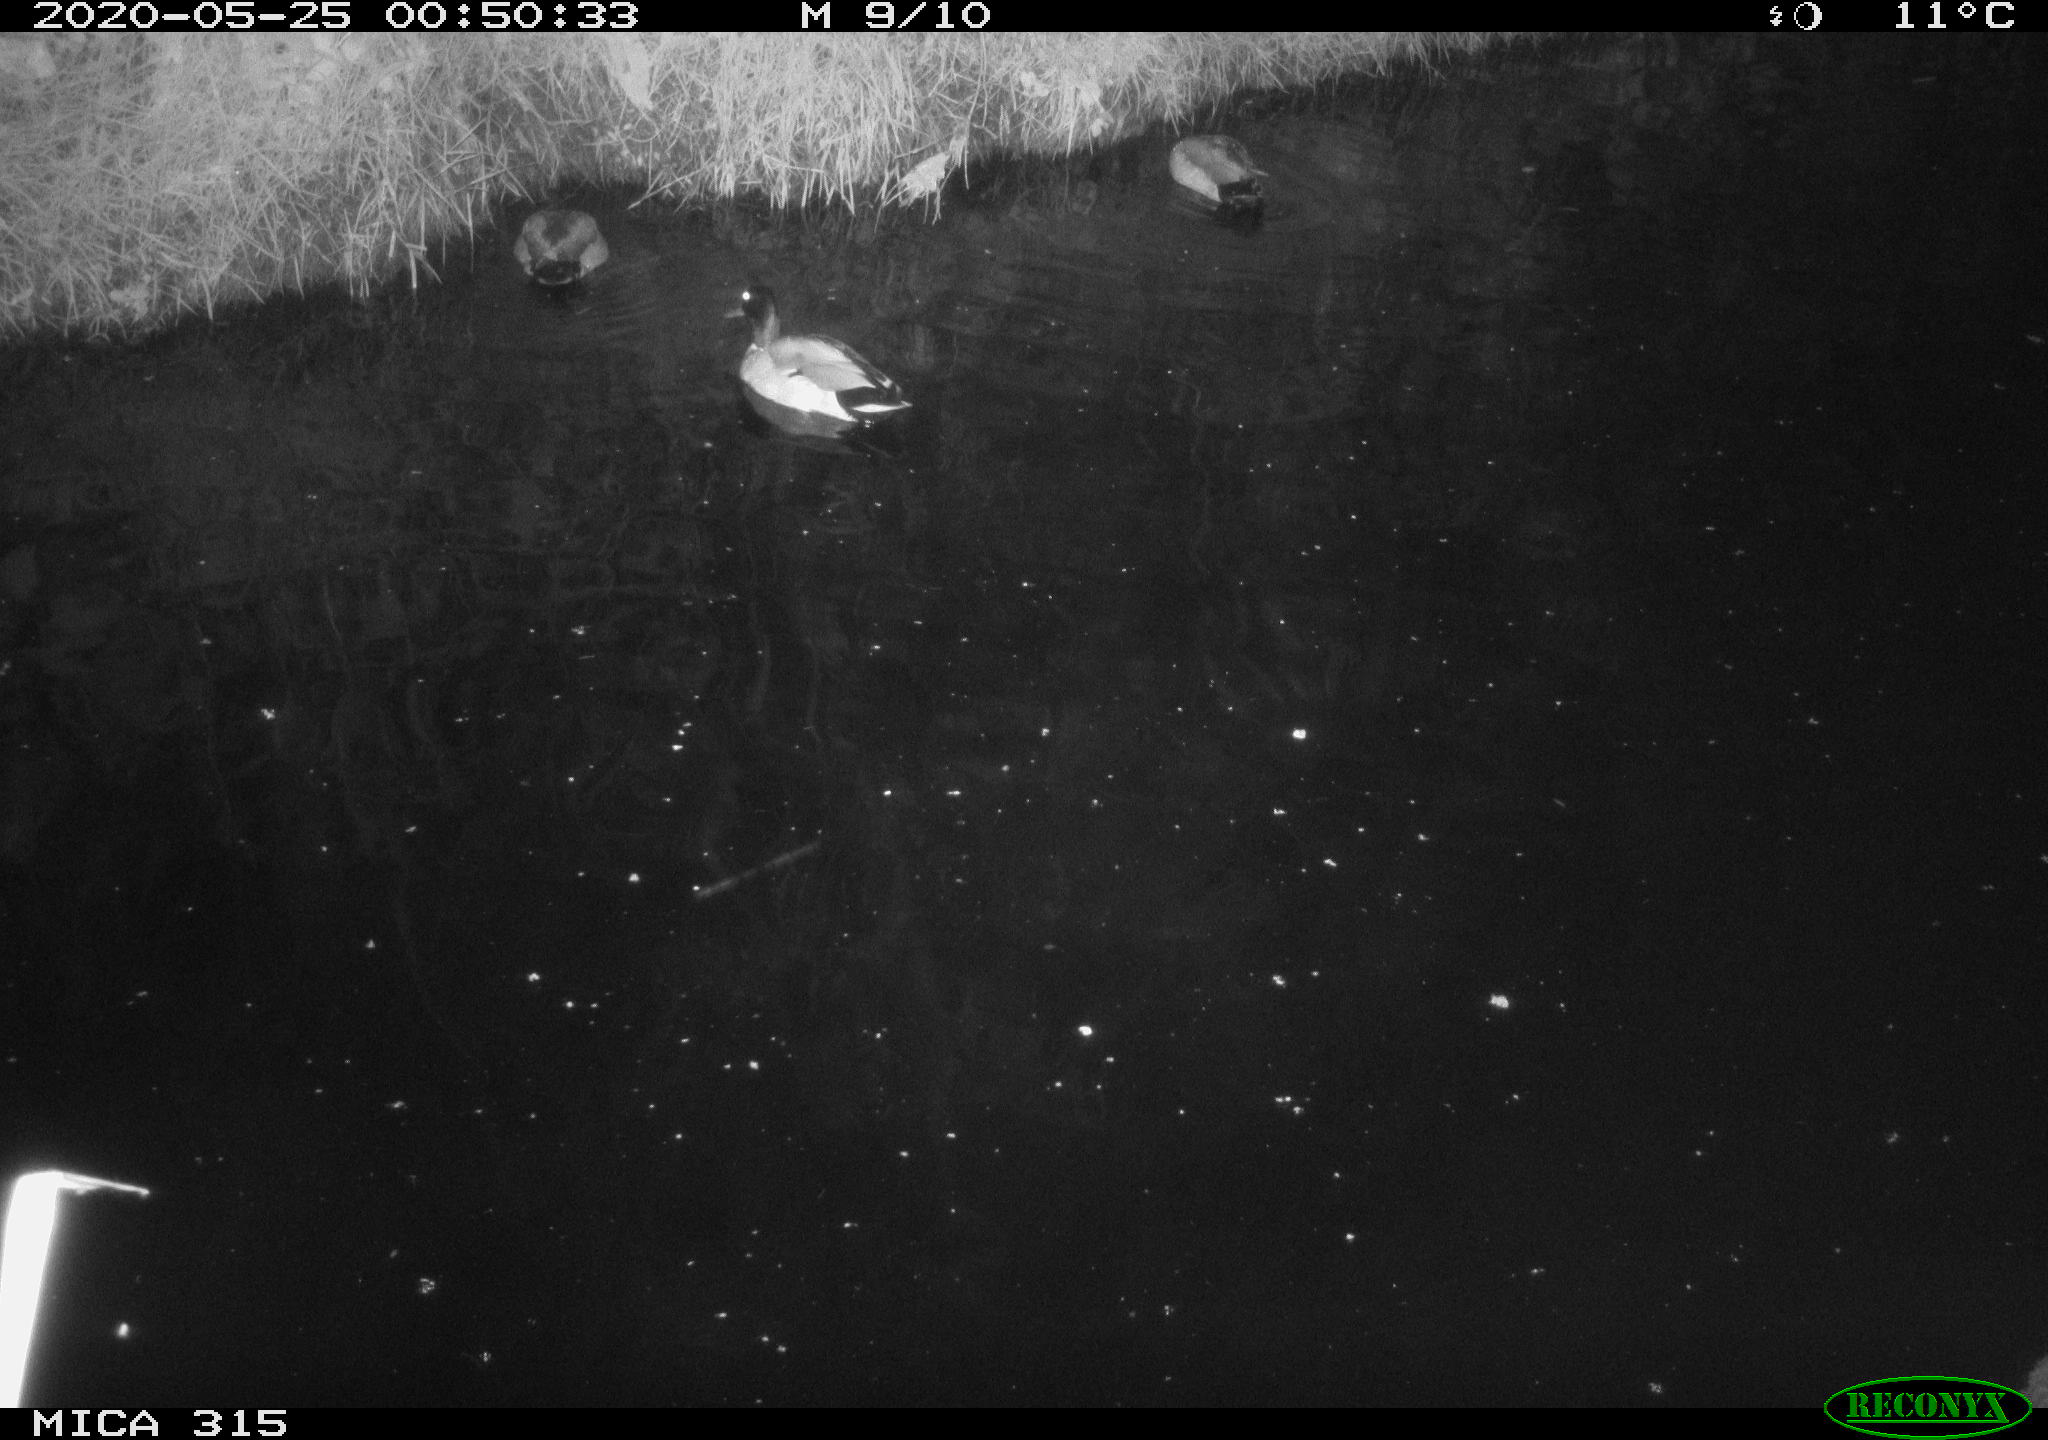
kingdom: Animalia
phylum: Chordata
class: Aves
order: Anseriformes
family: Anatidae
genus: Anas
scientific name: Anas platyrhynchos
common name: Mallard
